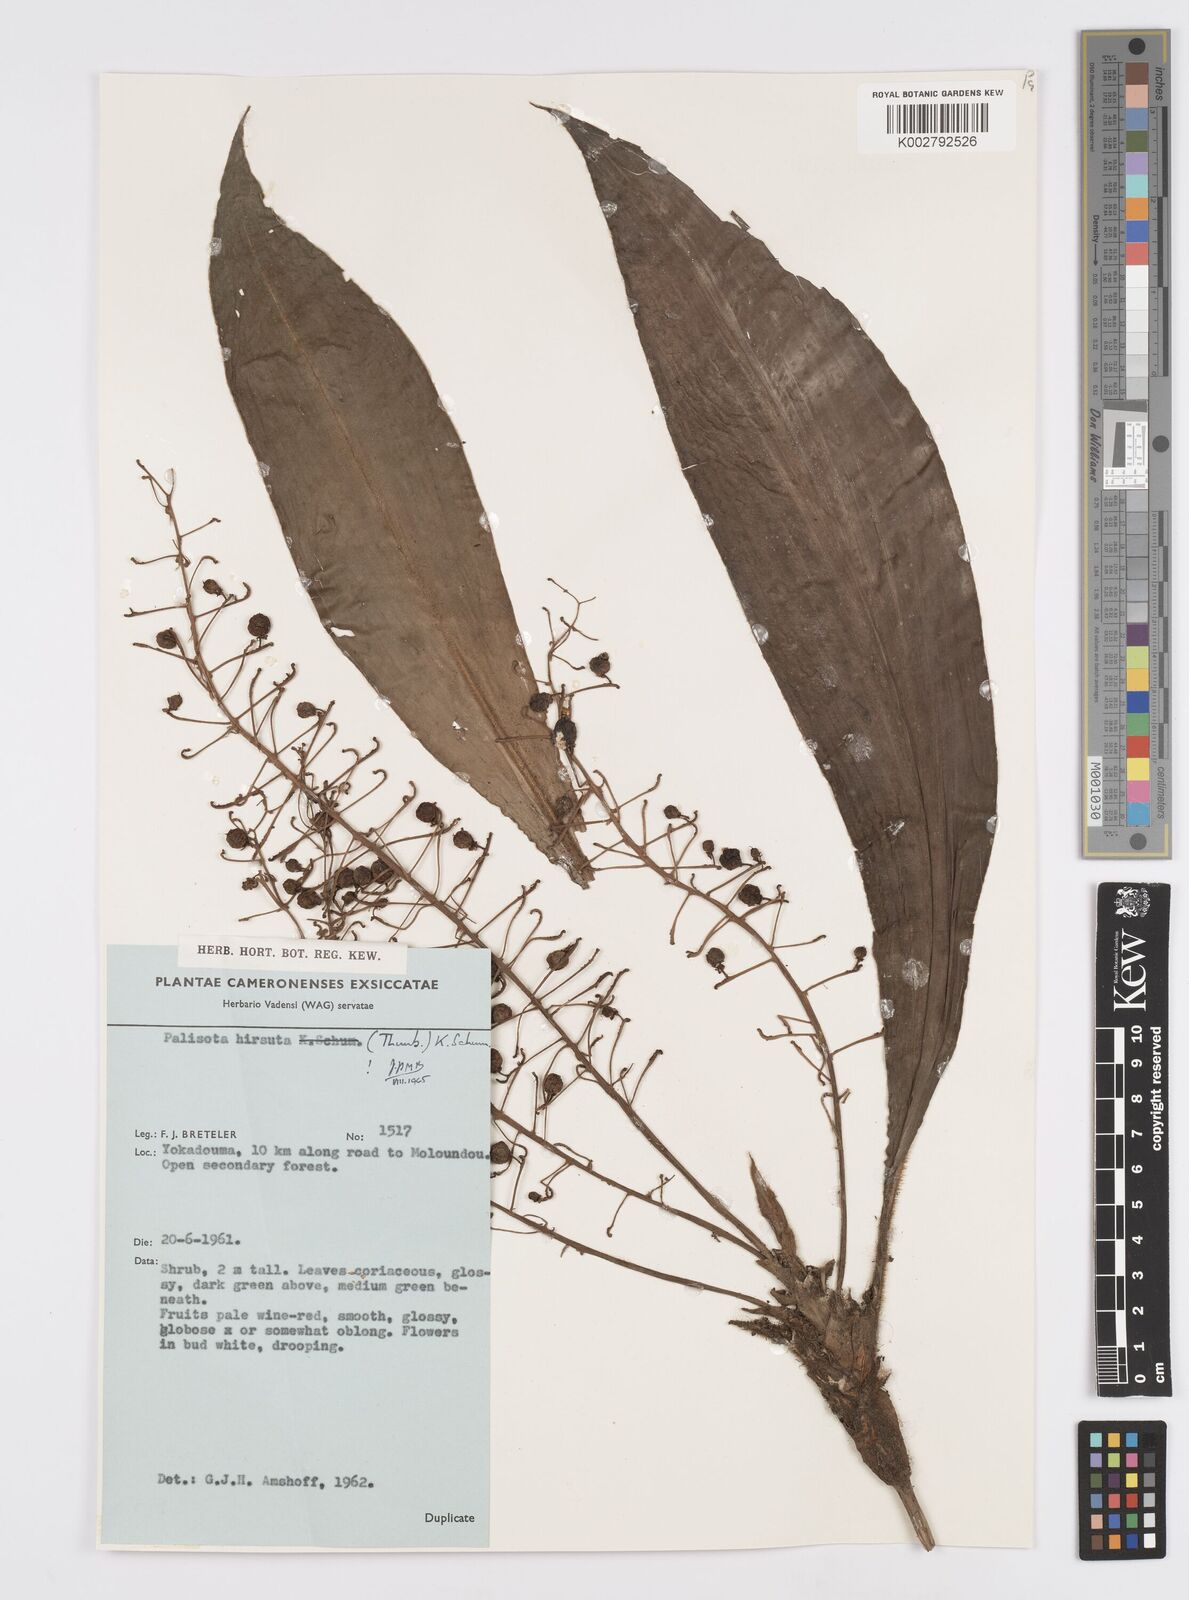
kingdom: Plantae
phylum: Tracheophyta
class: Liliopsida
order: Commelinales
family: Commelinaceae
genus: Palisota
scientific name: Palisota hirsuta
